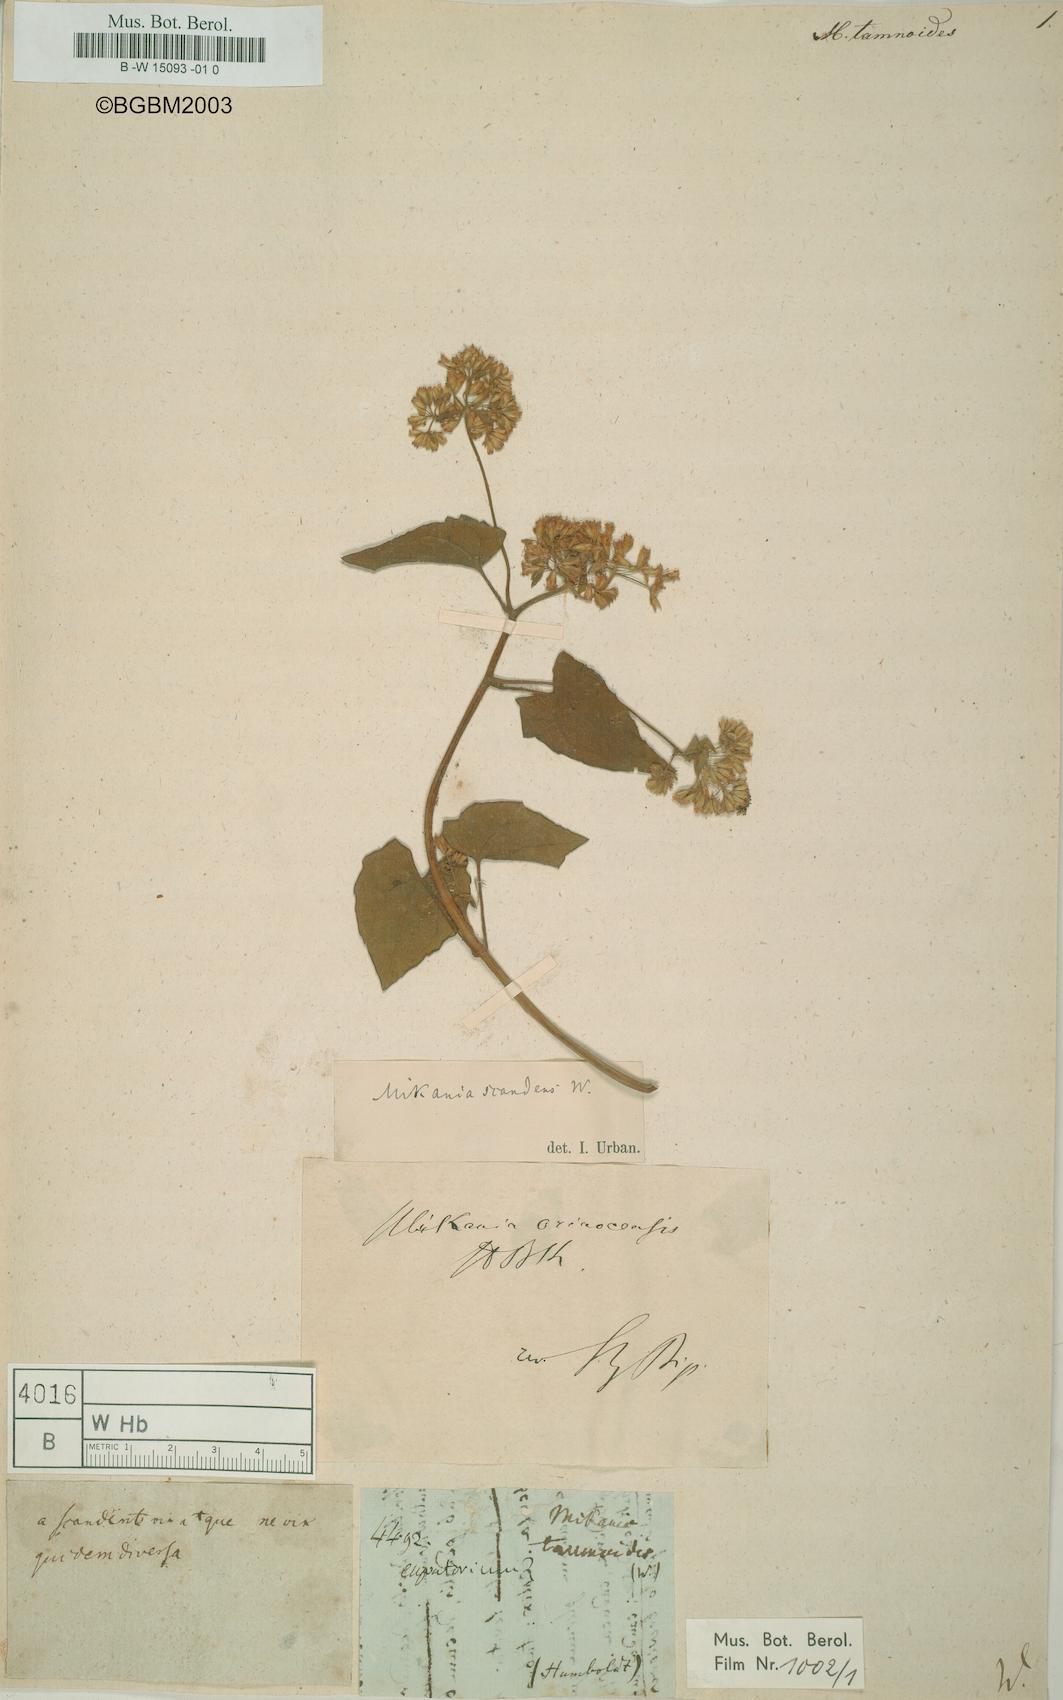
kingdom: Plantae
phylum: Tracheophyta
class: Magnoliopsida
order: Asterales
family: Asteraceae
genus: Mikania
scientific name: Mikania micrantha
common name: Mile-a-minute
